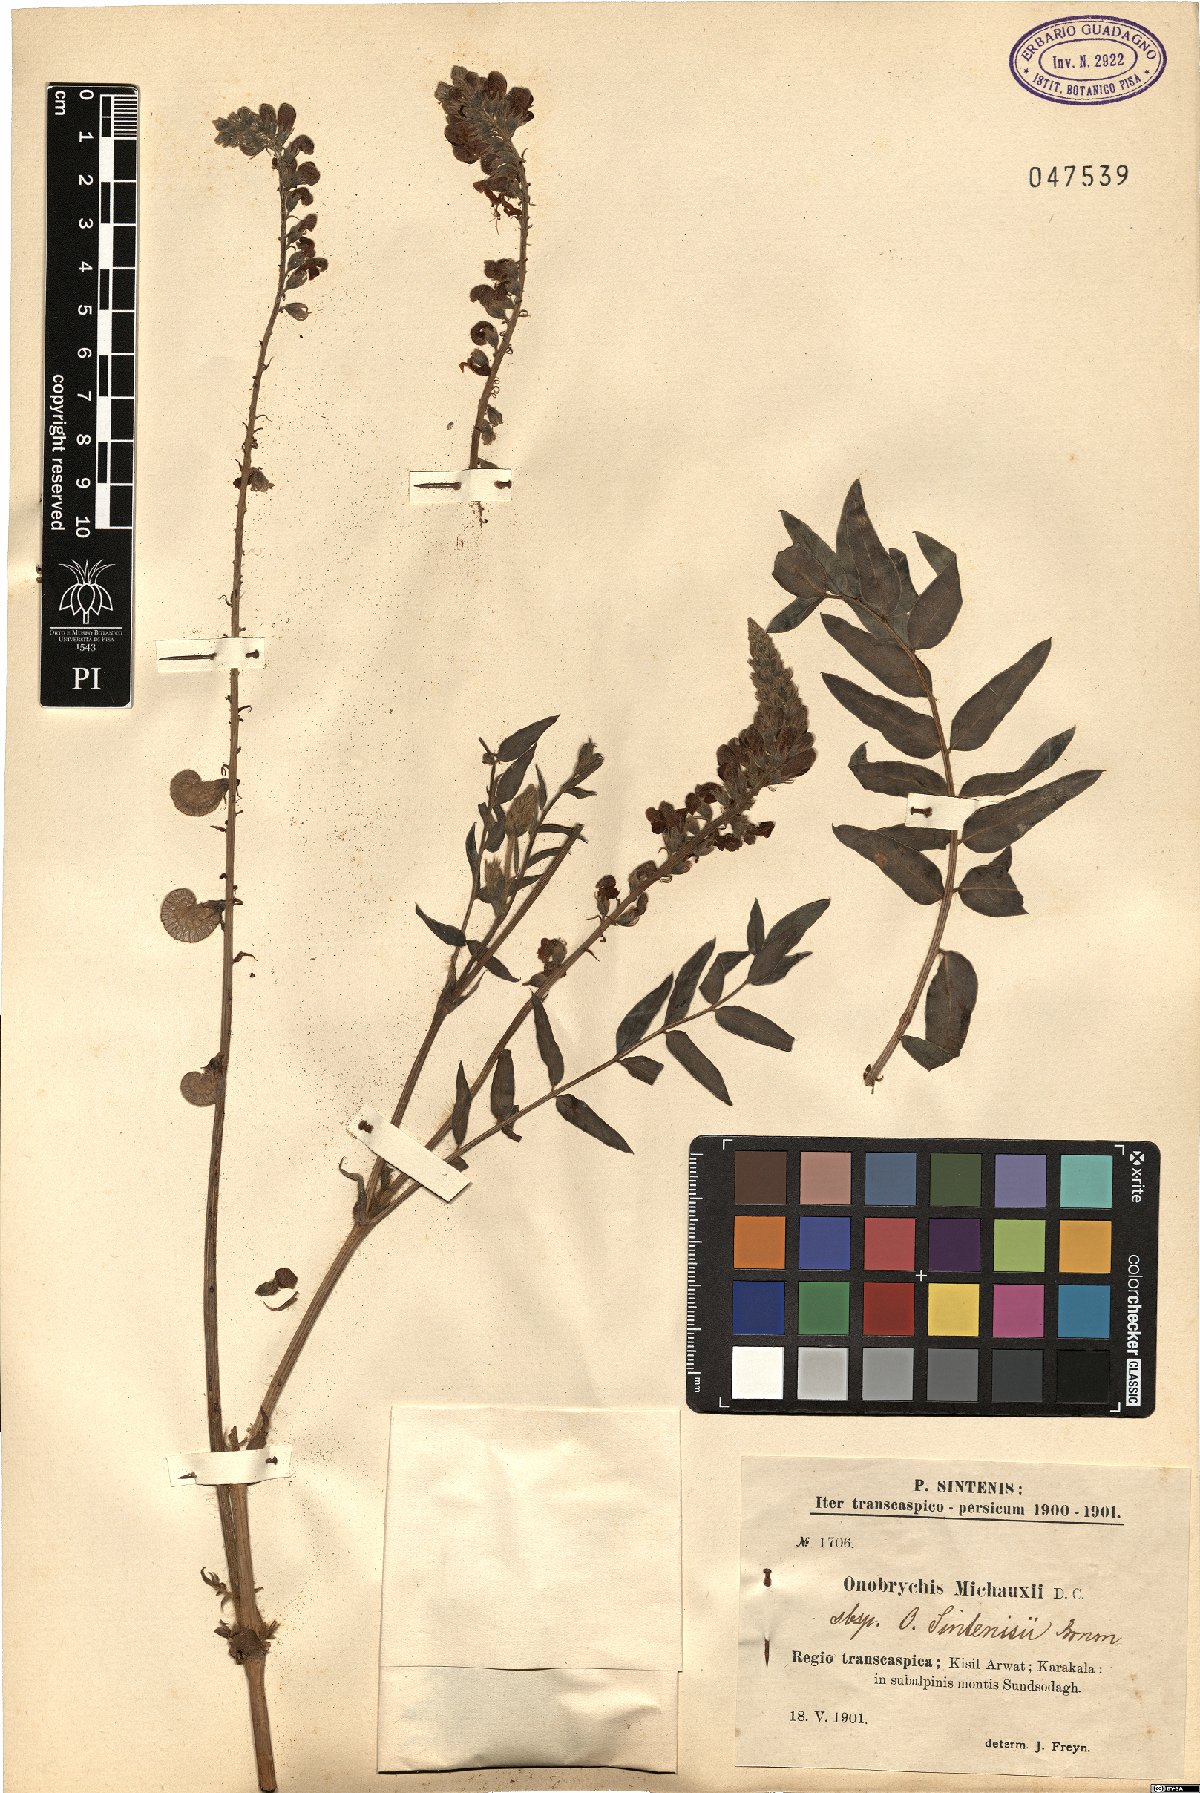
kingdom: Plantae
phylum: Tracheophyta
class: Magnoliopsida
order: Fabales
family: Fabaceae
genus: Onobrychis
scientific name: Onobrychis michauxii
